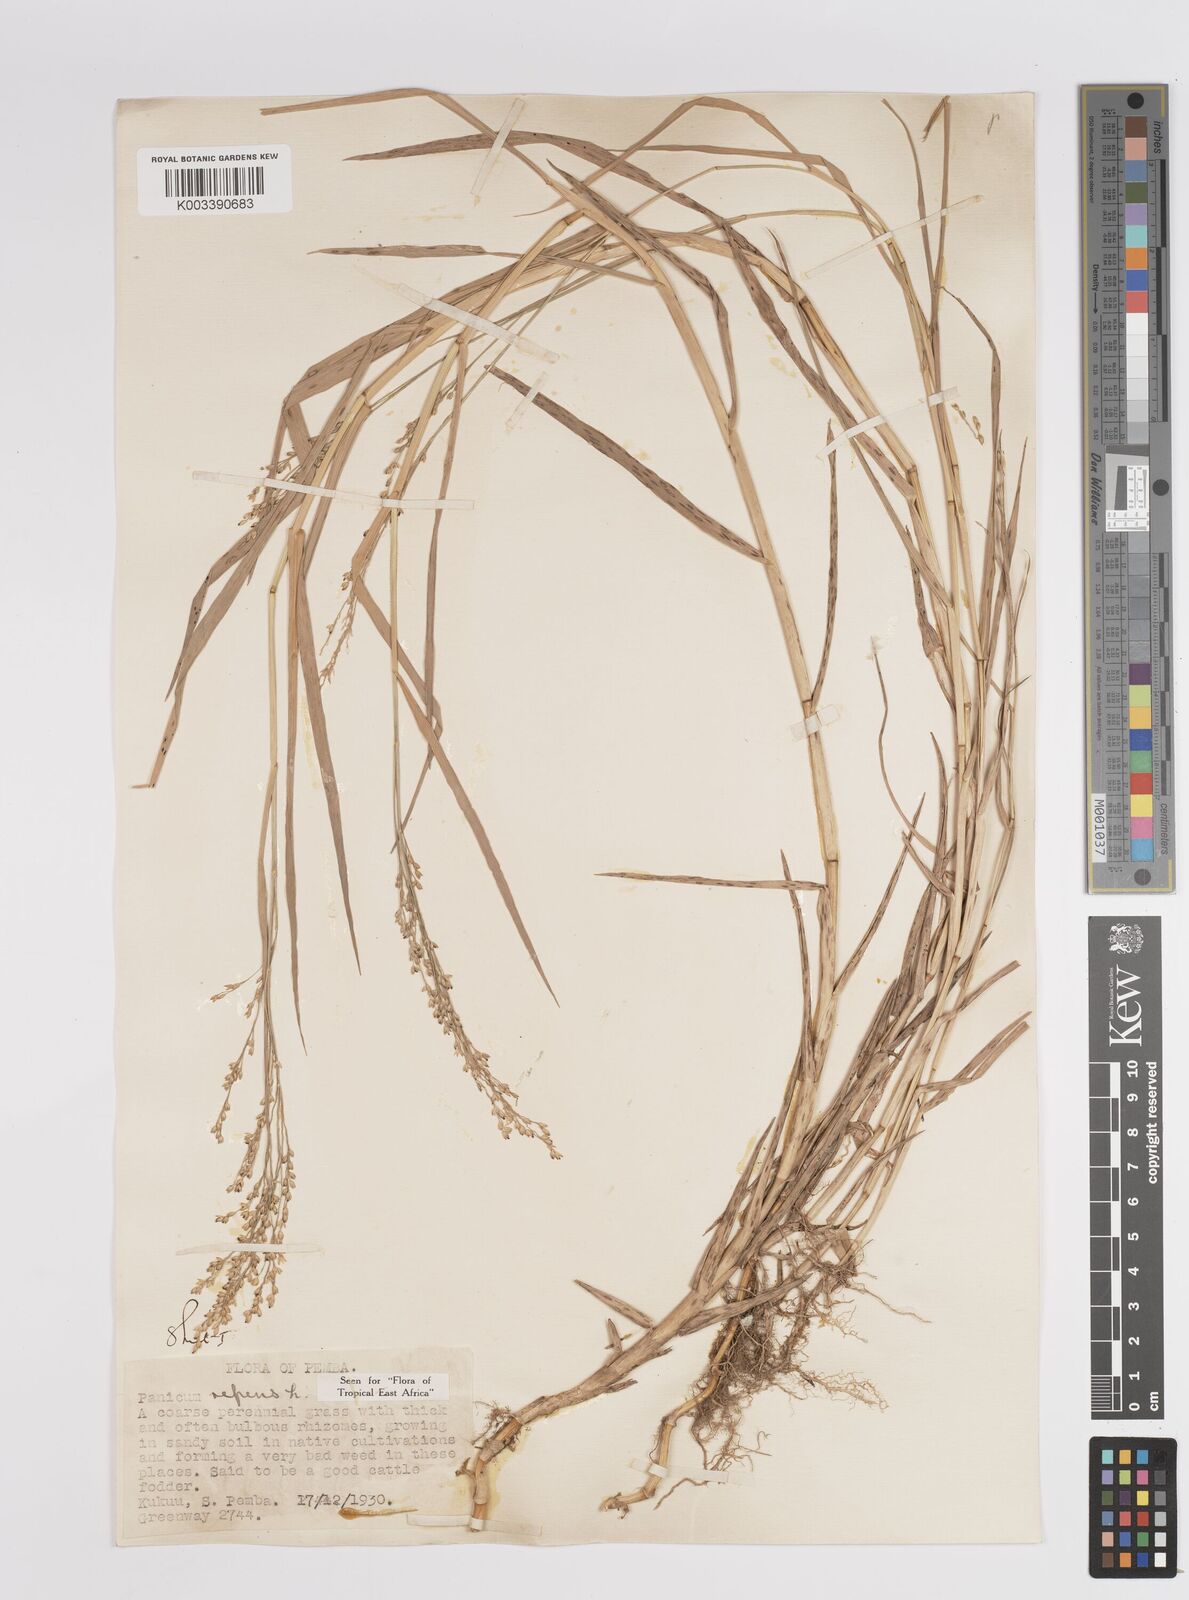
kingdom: Plantae
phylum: Tracheophyta
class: Liliopsida
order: Poales
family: Poaceae
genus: Panicum
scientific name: Panicum repens
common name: Torpedo grass
